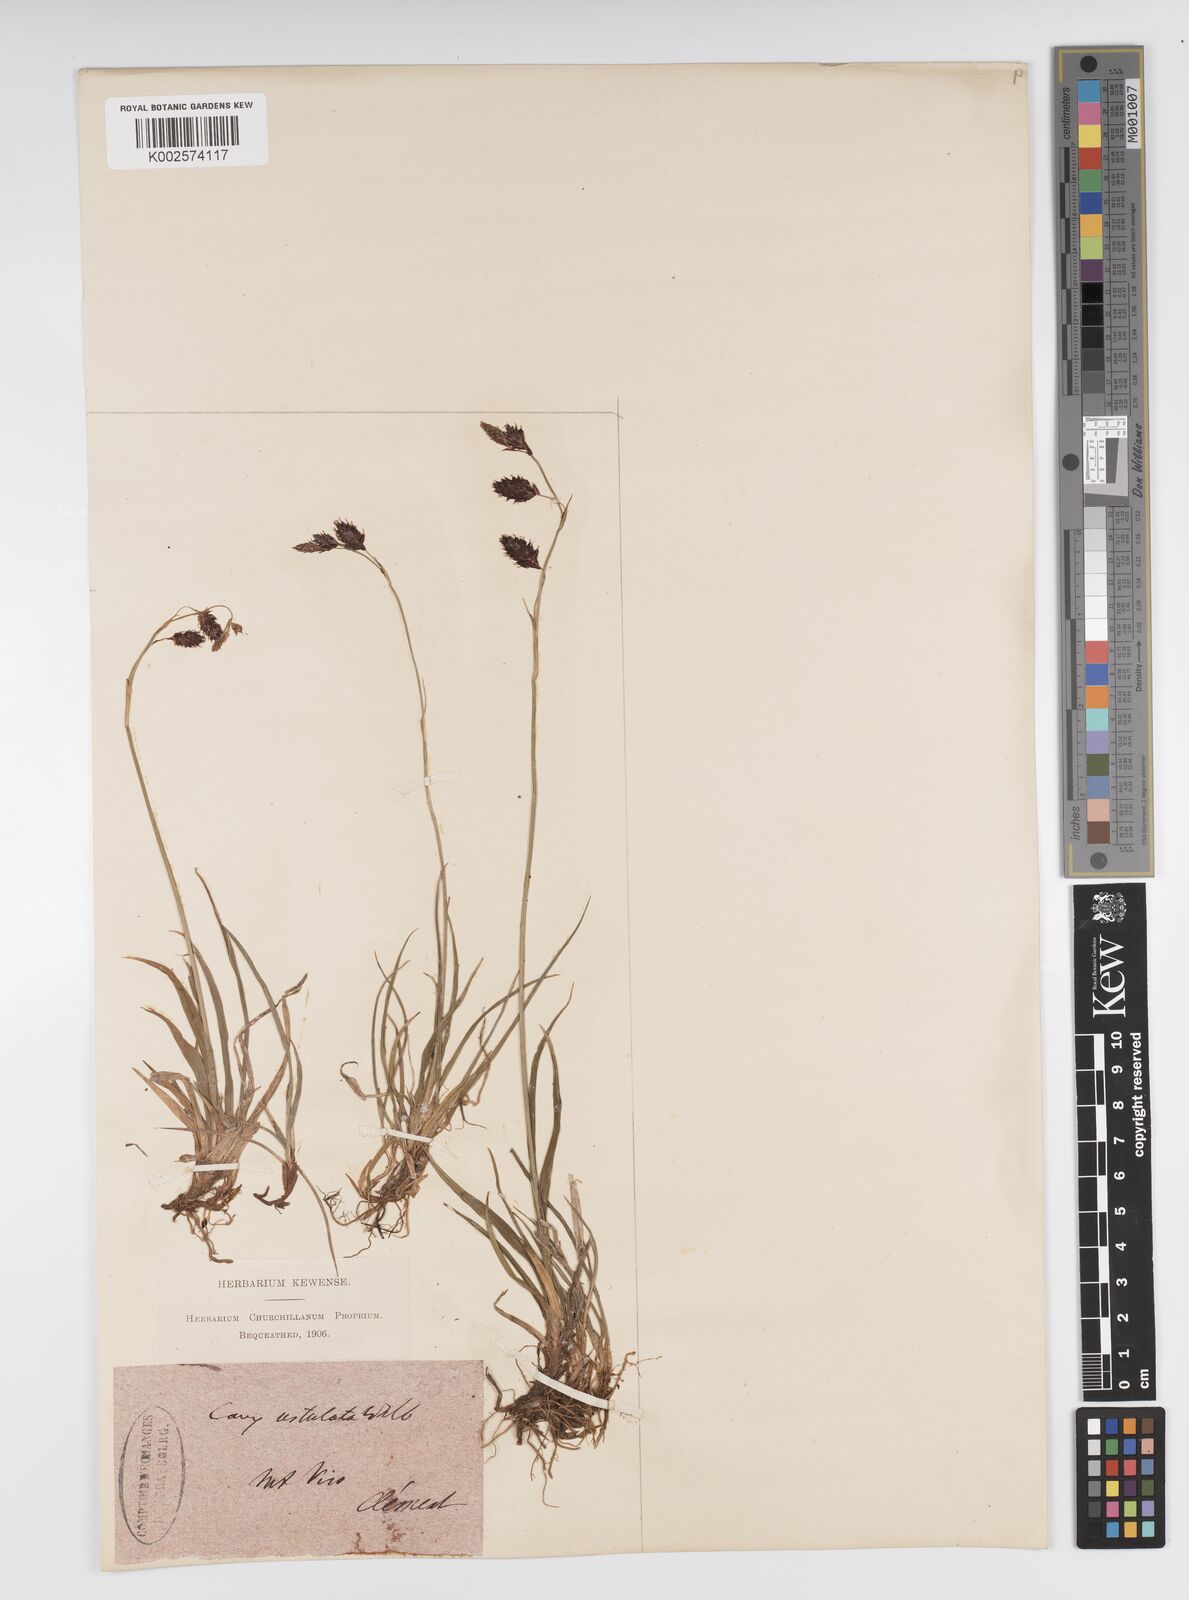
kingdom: Plantae
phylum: Tracheophyta
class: Liliopsida
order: Poales
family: Cyperaceae
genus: Carex
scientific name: Carex atrofusca
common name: Scorched alpine-sedge
